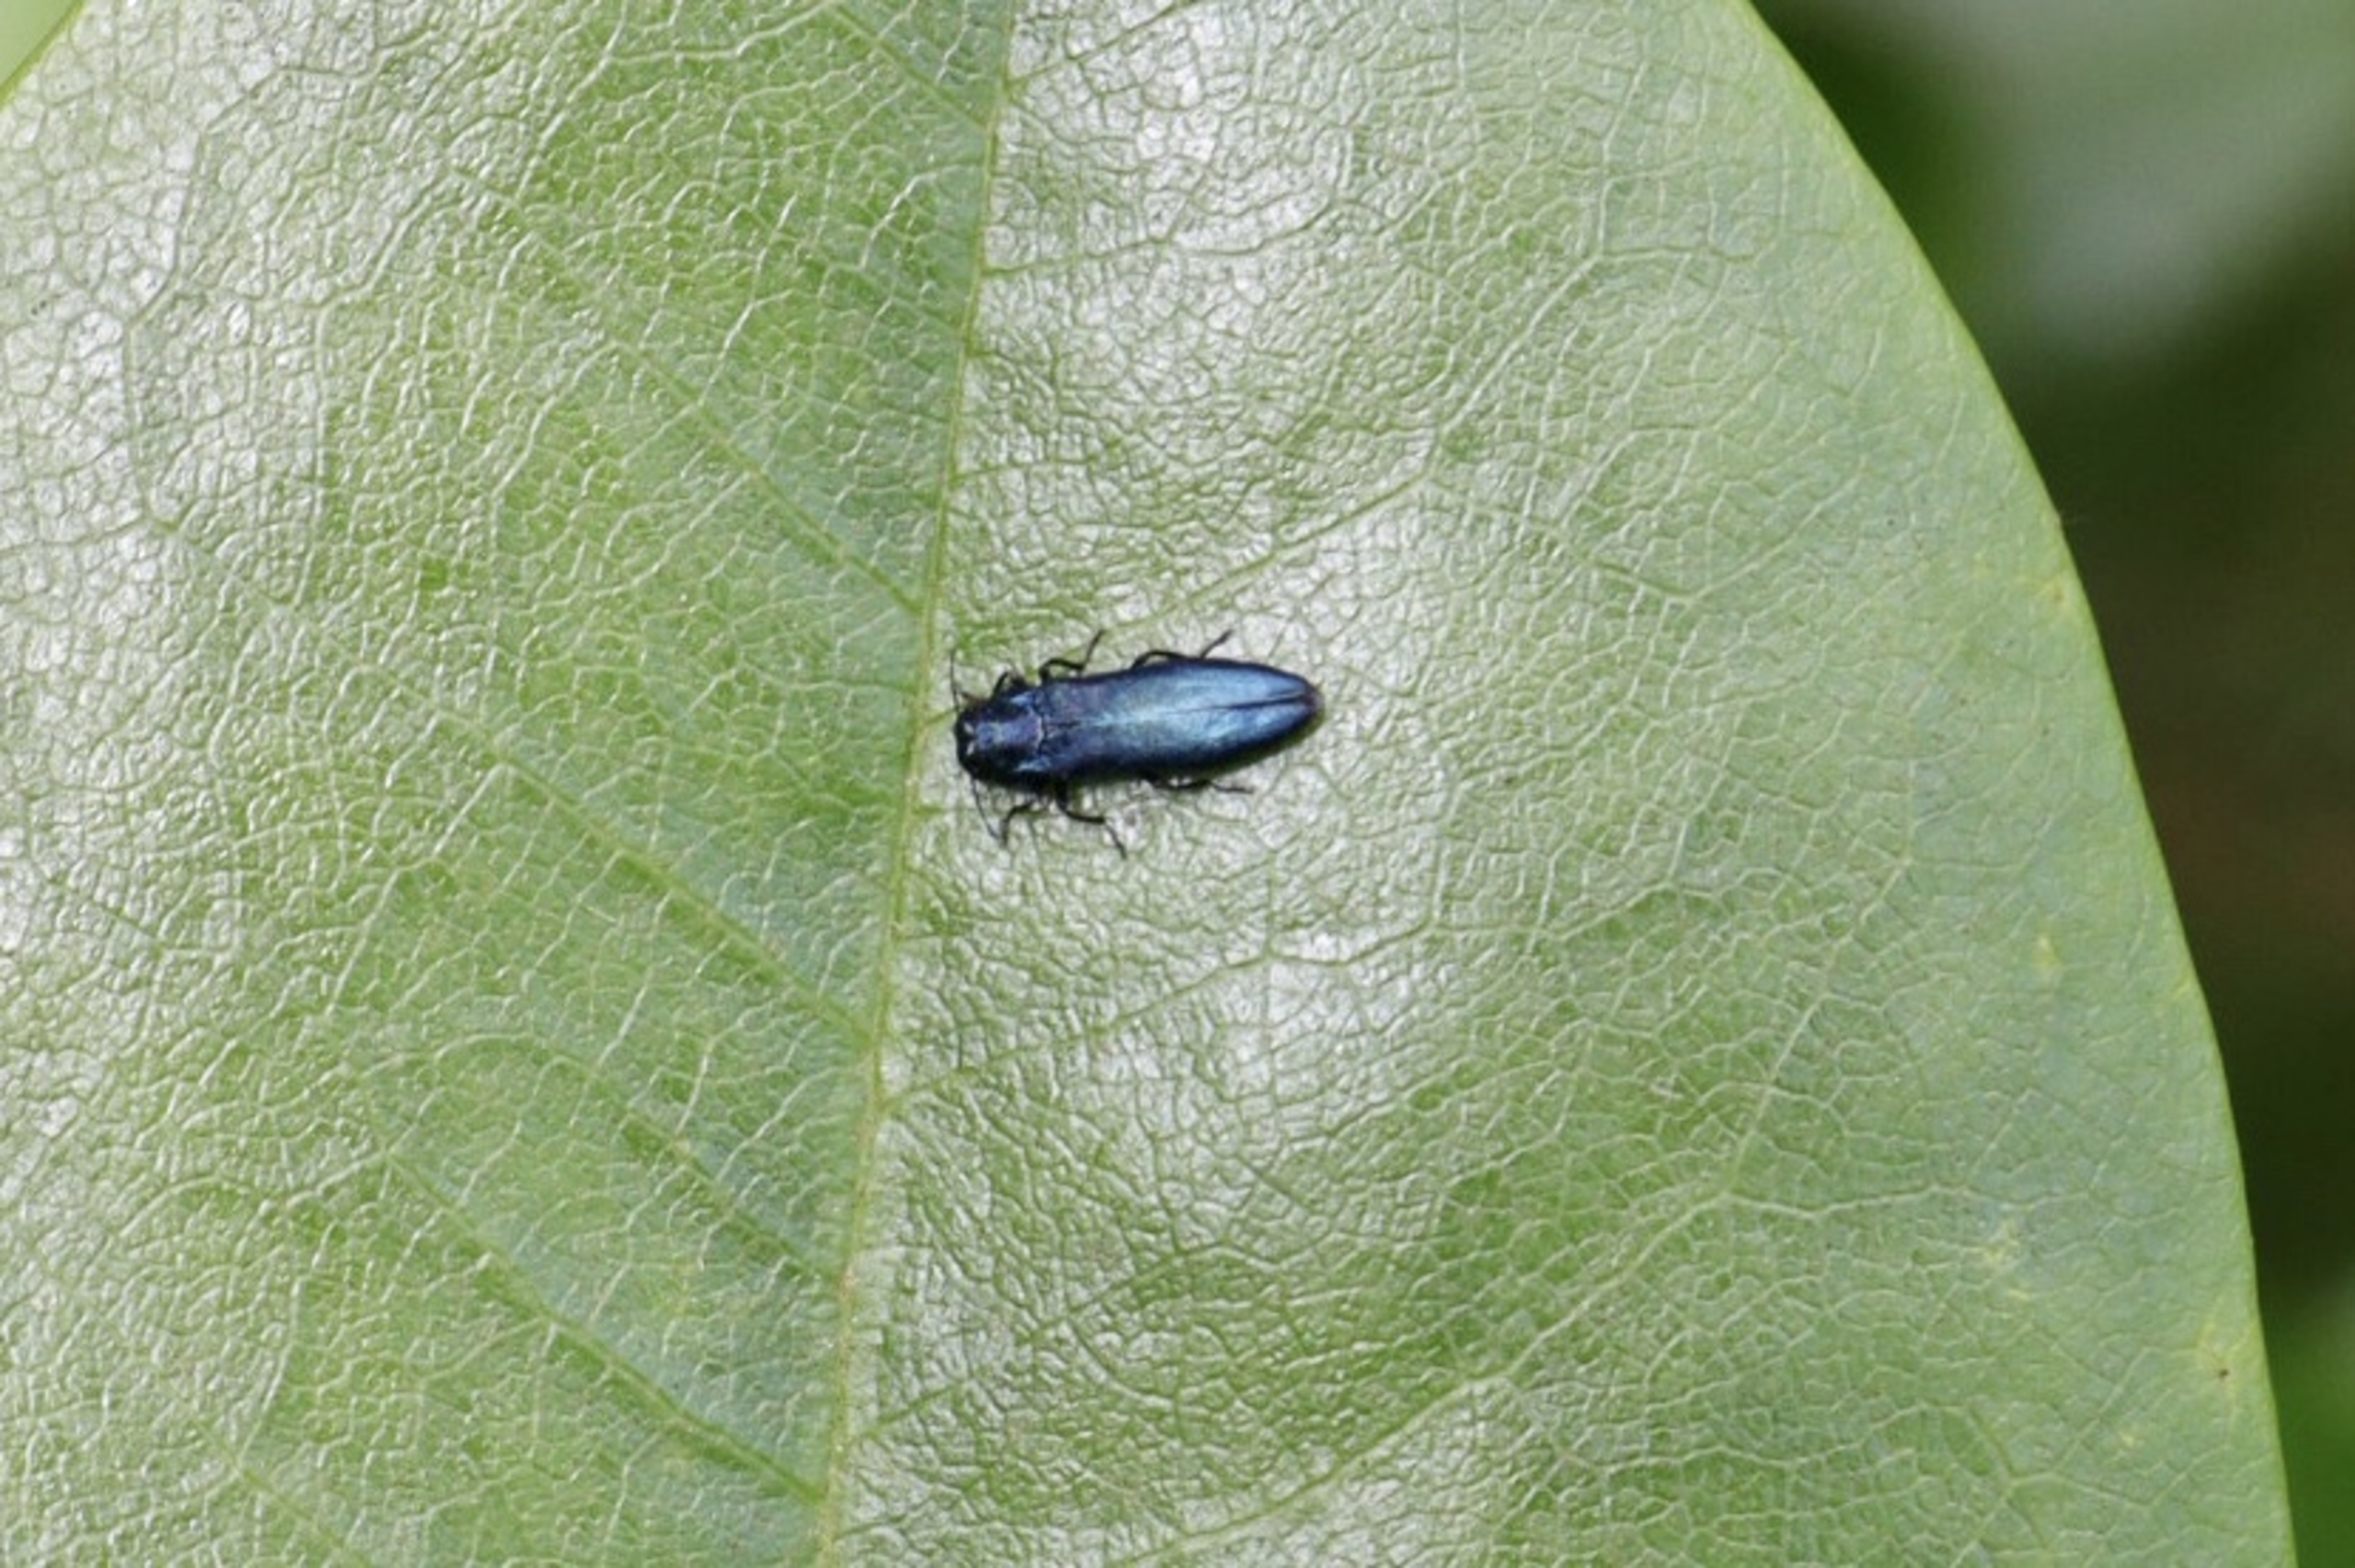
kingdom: Animalia
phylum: Arthropoda
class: Insecta
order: Coleoptera
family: Buprestidae
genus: Agrilus
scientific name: Agrilus cyanescens
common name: Kaprifoliepragtbille
